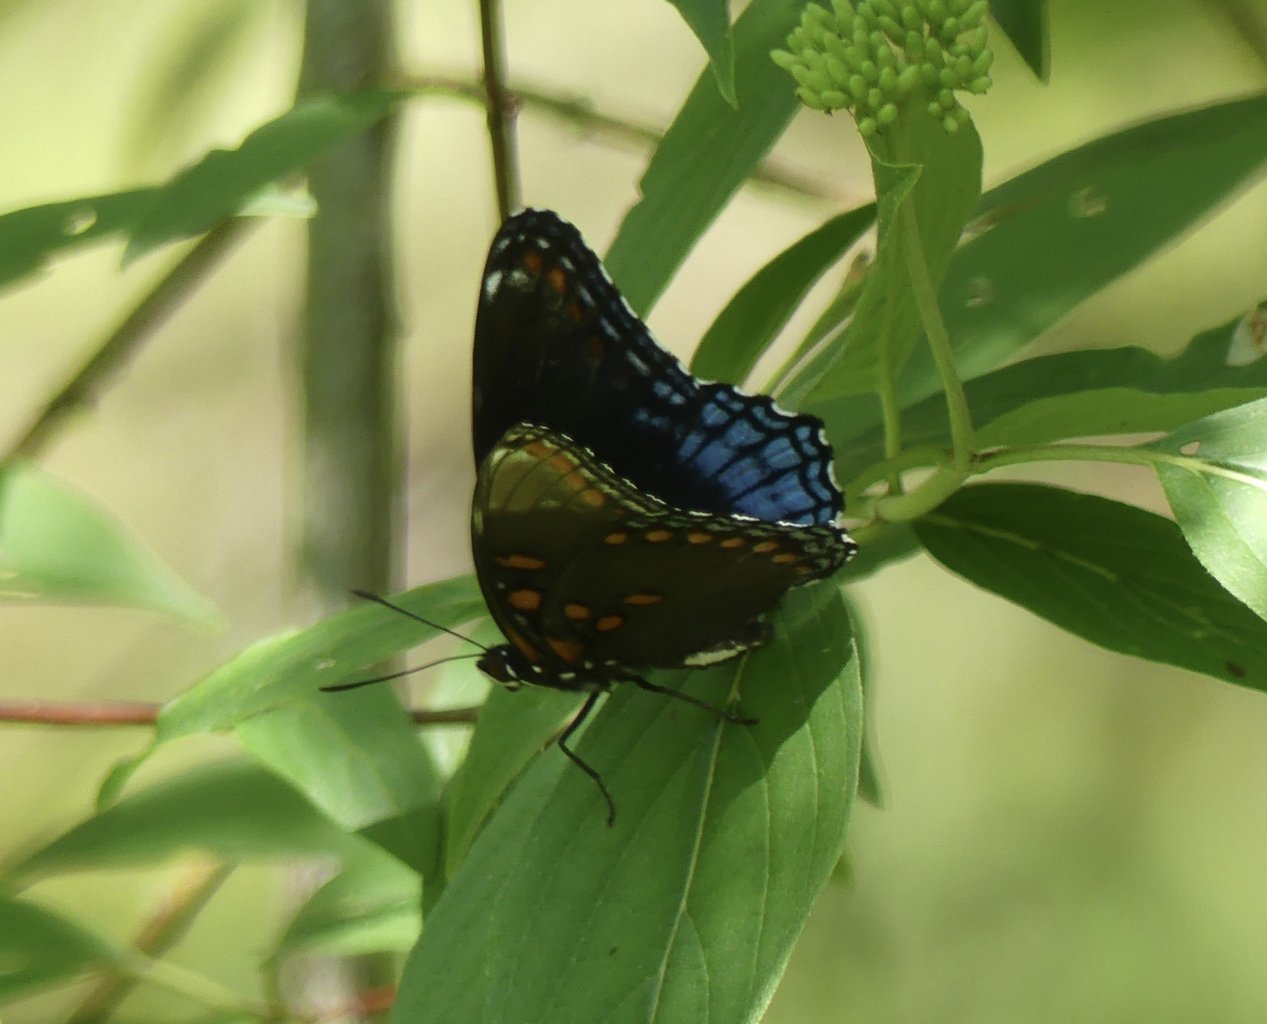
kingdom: Animalia
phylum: Arthropoda
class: Insecta
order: Lepidoptera
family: Nymphalidae
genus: Limenitis
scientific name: Limenitis astyanax
